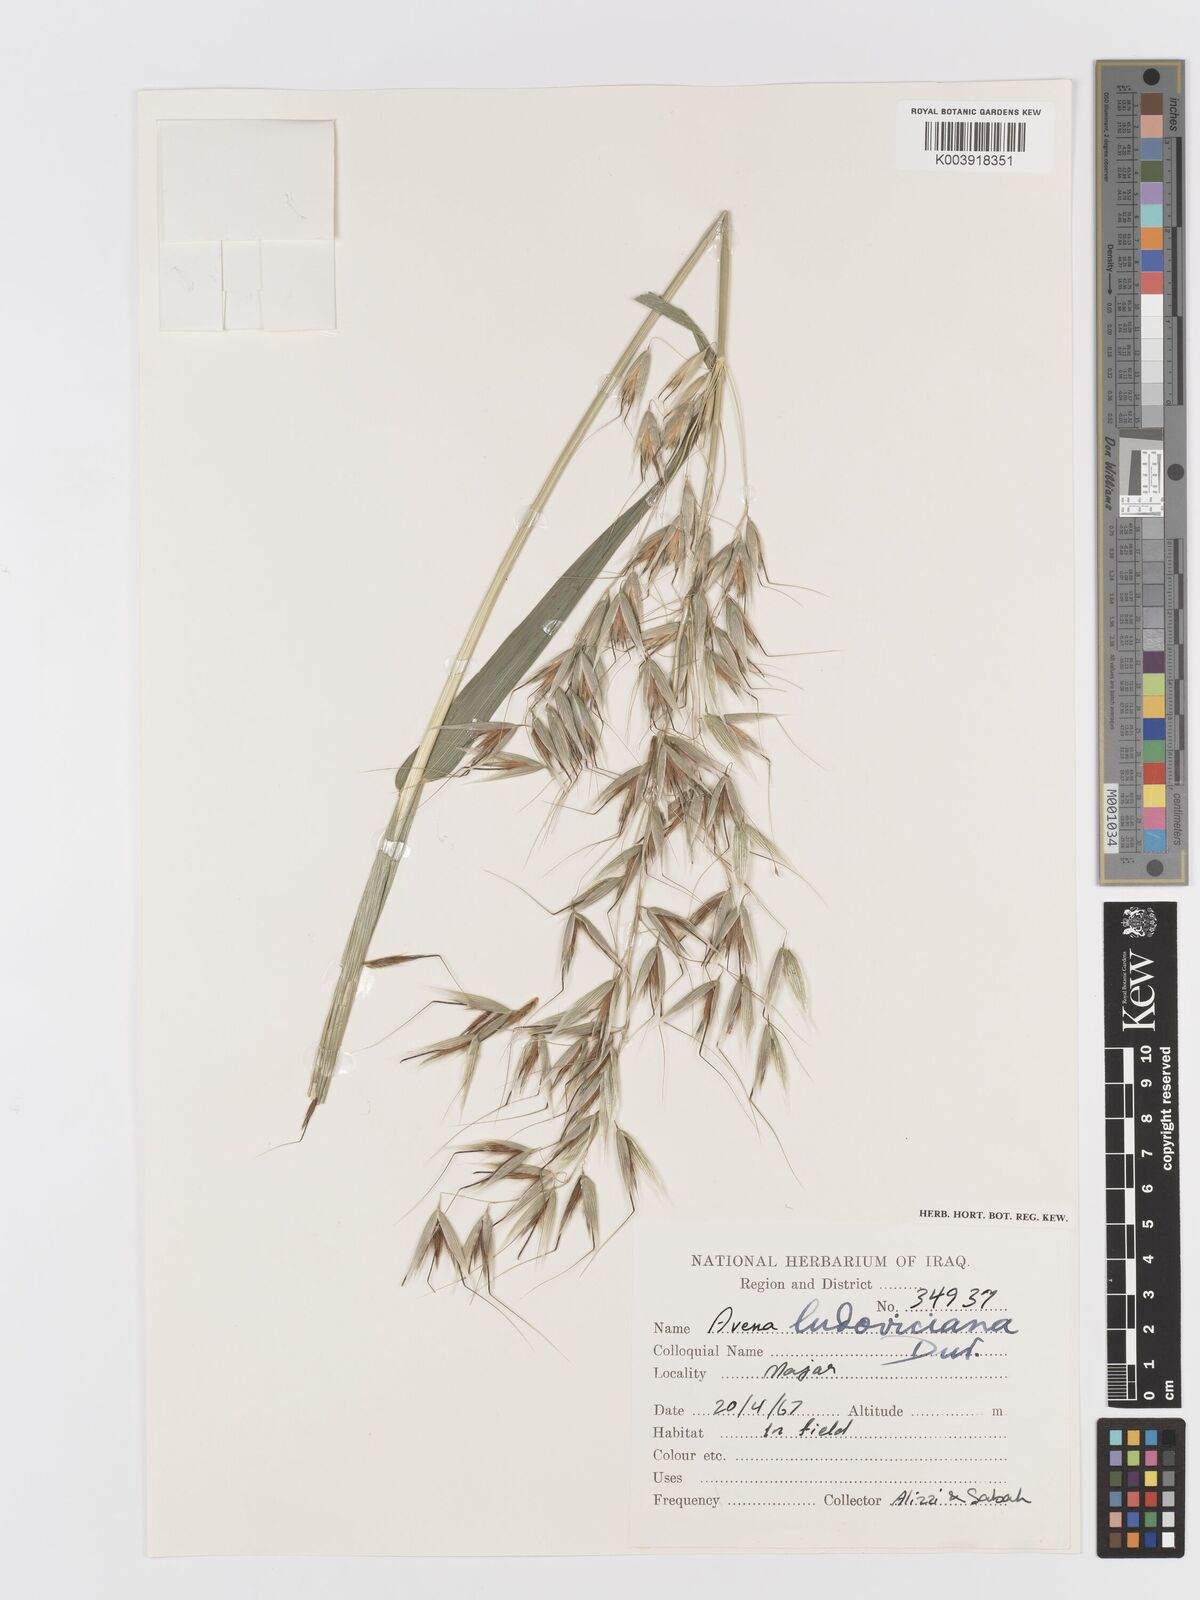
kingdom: Plantae
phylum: Tracheophyta
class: Liliopsida
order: Poales
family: Poaceae
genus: Avena
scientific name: Avena sterilis
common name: Animated oat
